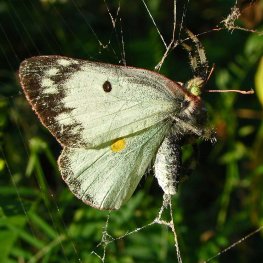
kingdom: Animalia
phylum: Arthropoda
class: Insecta
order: Lepidoptera
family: Pieridae
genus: Colias
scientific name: Colias eurytheme
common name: Orange Sulphur
